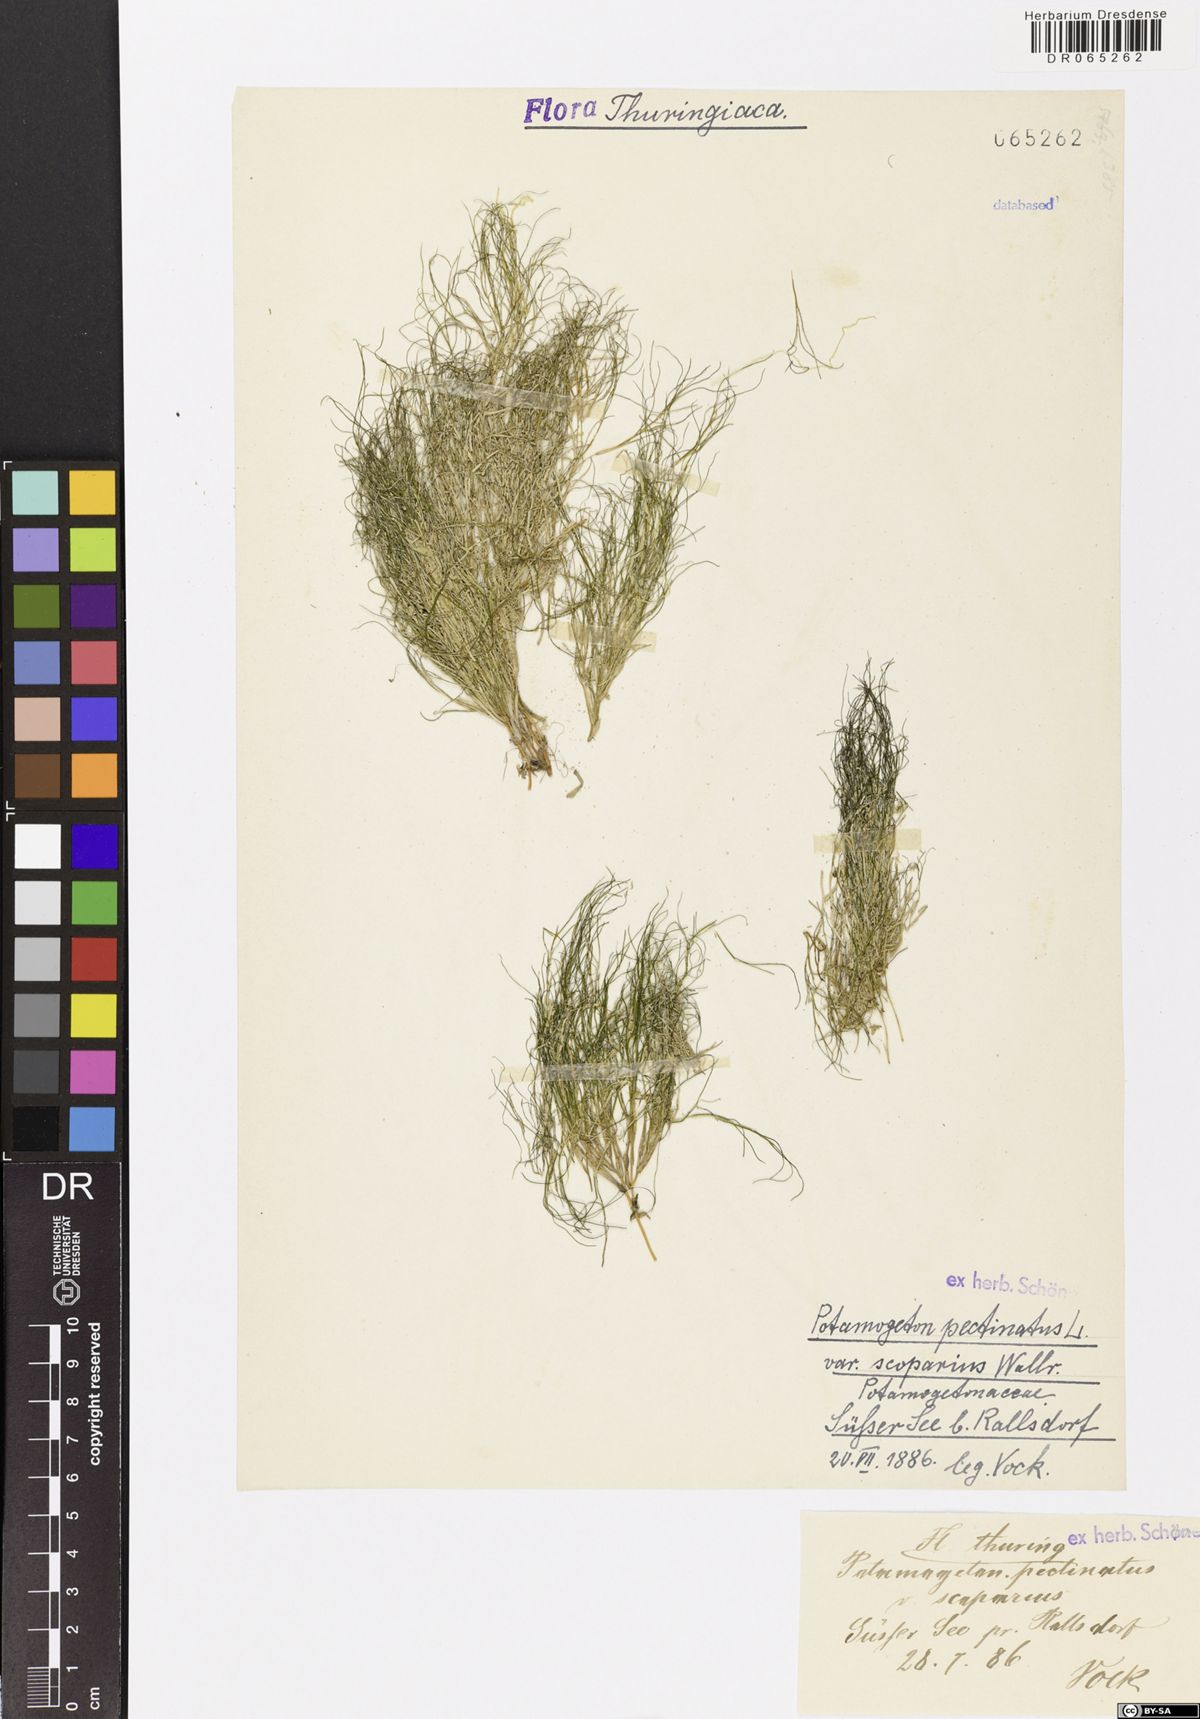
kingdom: Plantae
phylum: Tracheophyta
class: Liliopsida
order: Alismatales
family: Potamogetonaceae
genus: Stuckenia
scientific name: Stuckenia pectinata
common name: Sago pondweed
